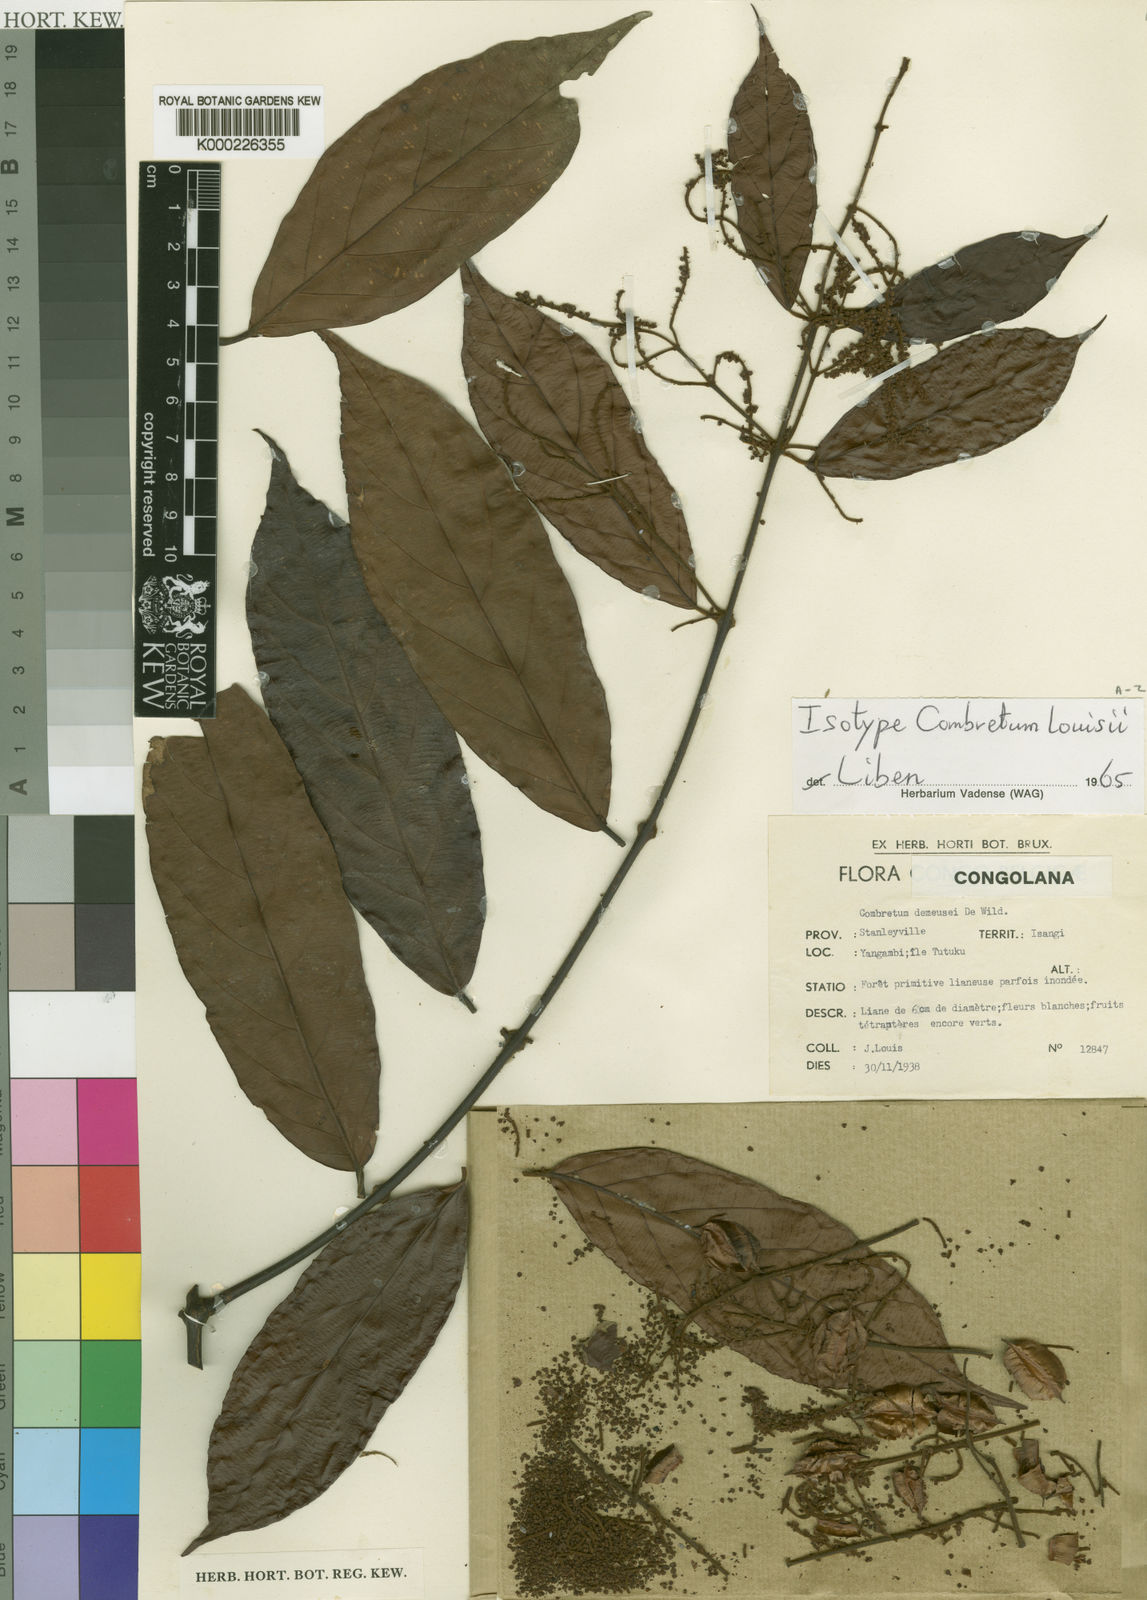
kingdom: Plantae
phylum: Tracheophyta
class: Magnoliopsida
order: Myrtales
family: Combretaceae
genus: Combretum
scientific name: Combretum louisii
